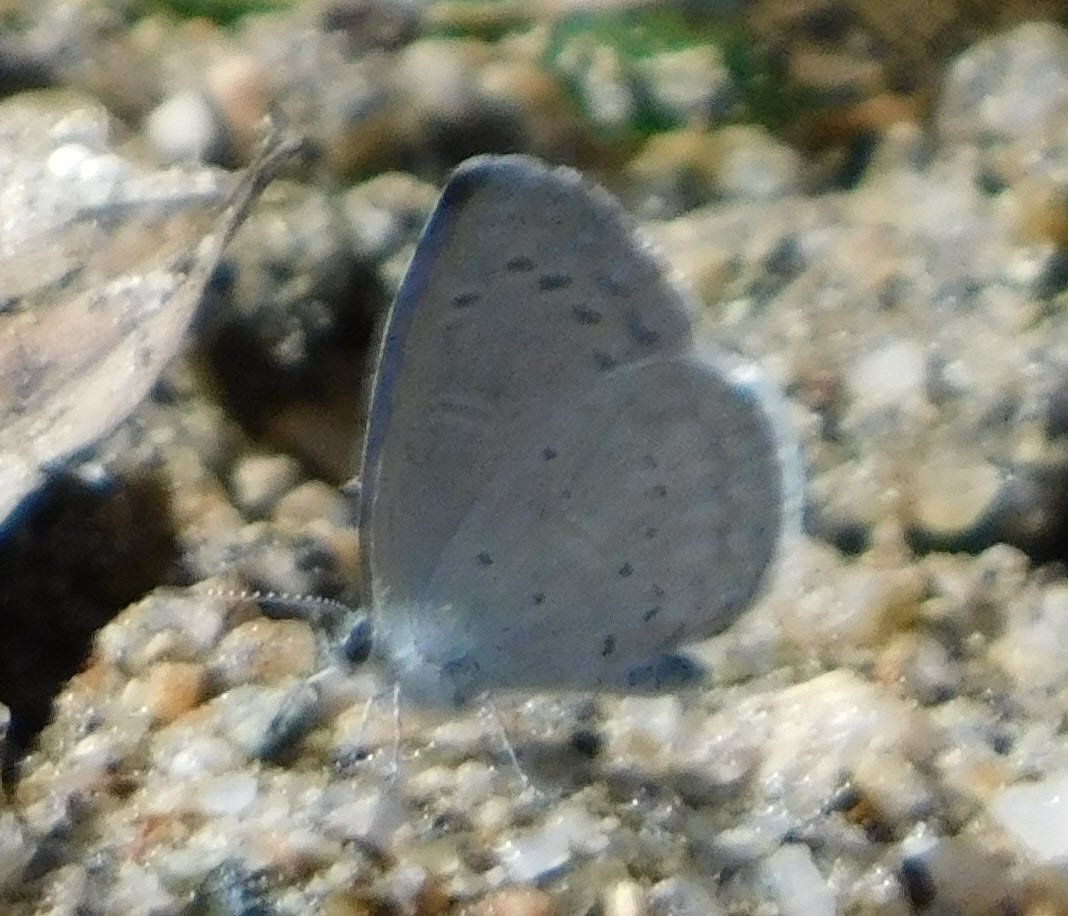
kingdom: Animalia
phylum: Arthropoda
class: Insecta
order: Lepidoptera
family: Lycaenidae
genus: Celastrina
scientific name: Celastrina ladon
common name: Echo Azure
